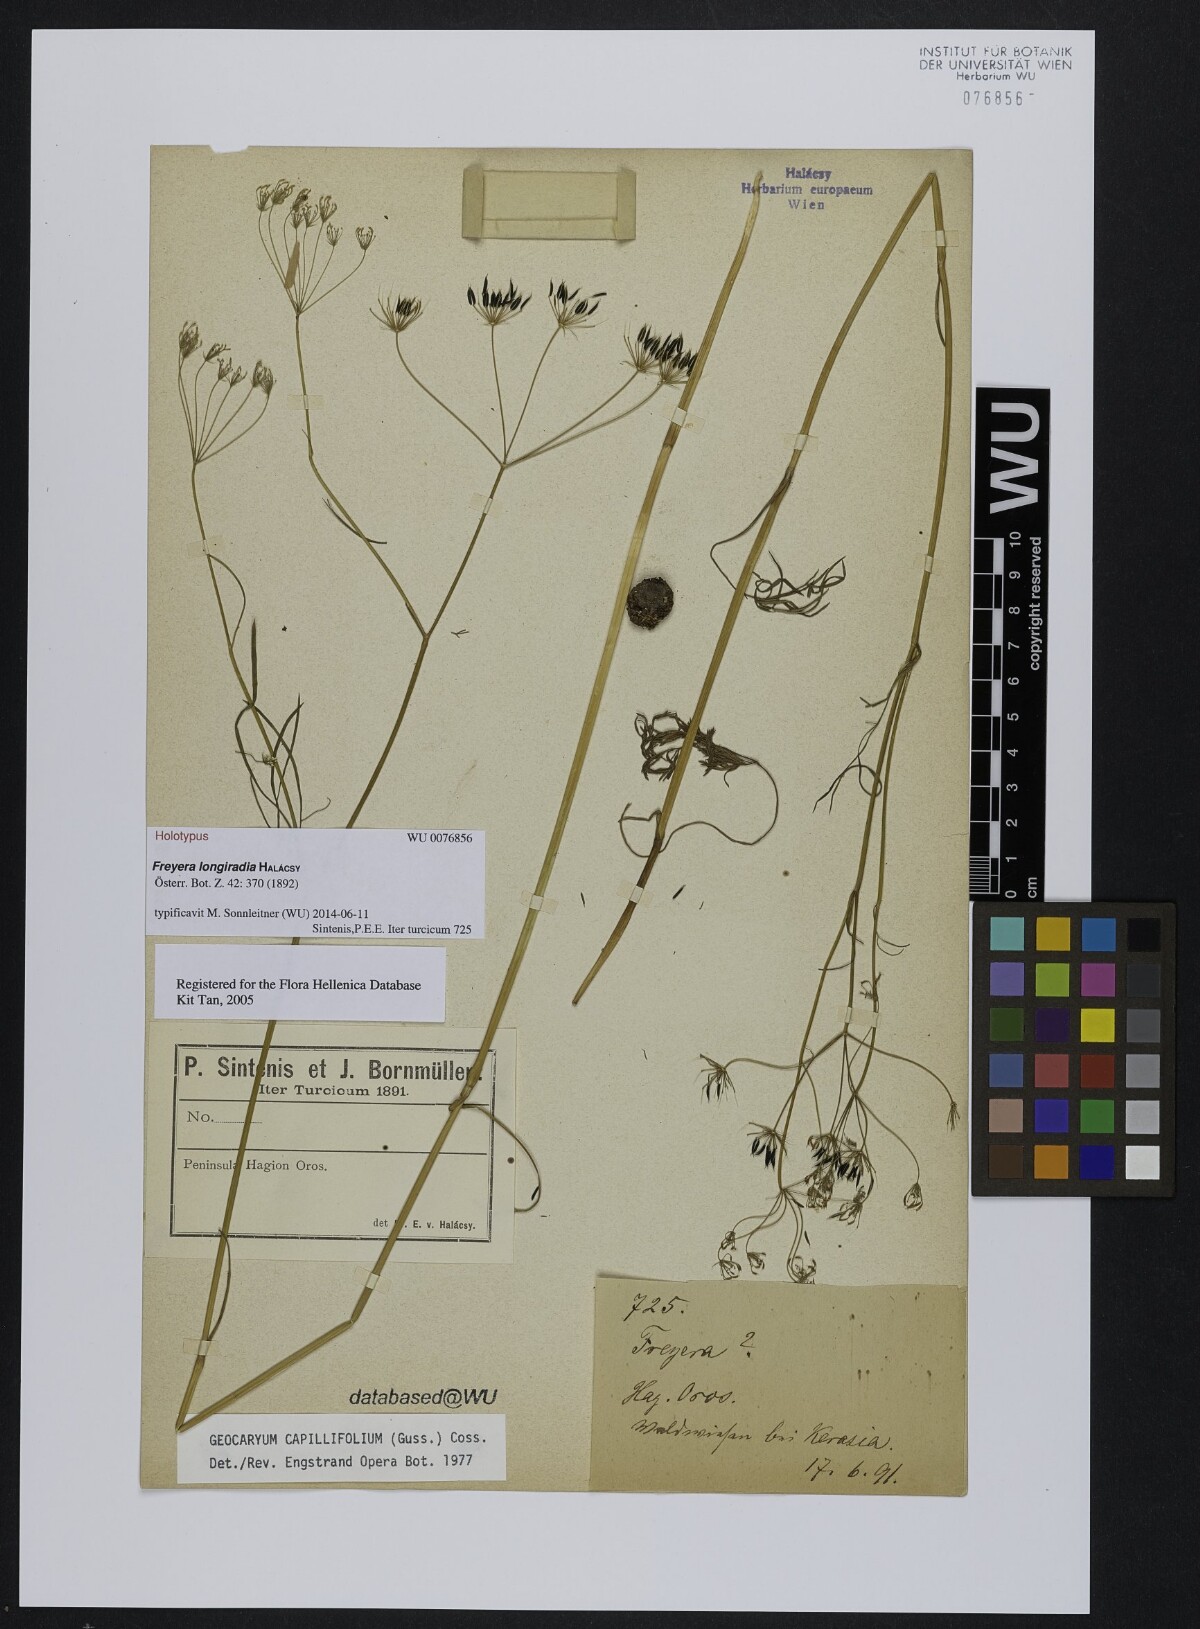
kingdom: Plantae
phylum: Tracheophyta
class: Magnoliopsida
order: Apiales
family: Apiaceae
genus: Geocaryum
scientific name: Geocaryum capillifolium
